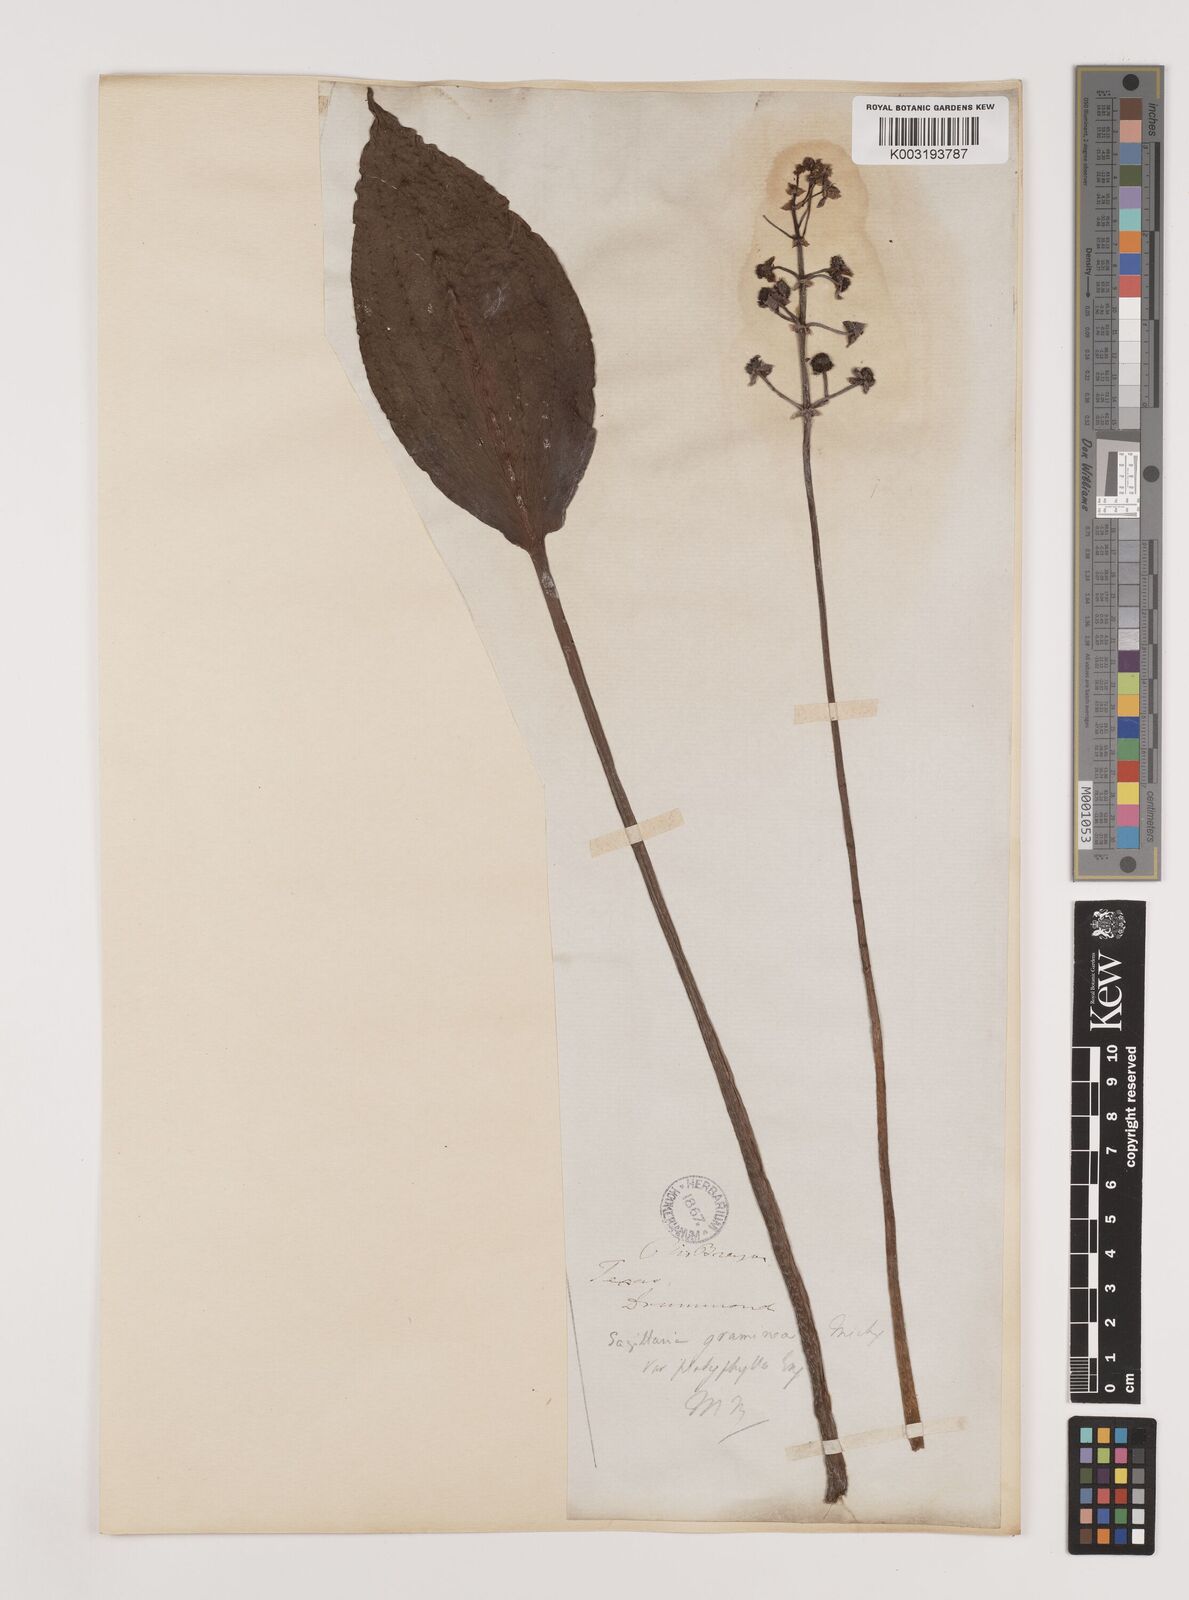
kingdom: Plantae
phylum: Tracheophyta
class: Liliopsida
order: Alismatales
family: Alismataceae
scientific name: Alismataceae
